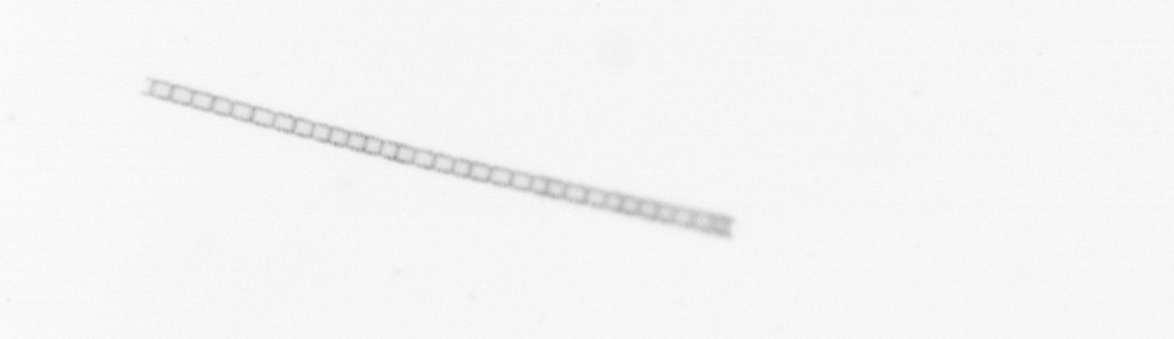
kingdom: Chromista
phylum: Ochrophyta
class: Bacillariophyceae
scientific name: Bacillariophyceae
